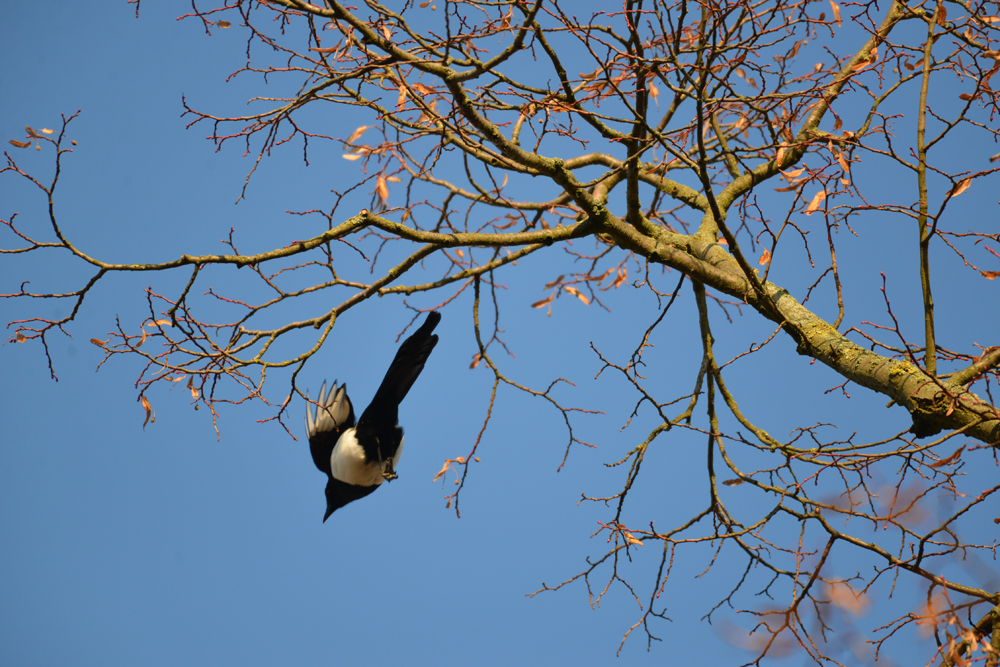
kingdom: Animalia
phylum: Chordata
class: Aves
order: Passeriformes
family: Corvidae
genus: Pica
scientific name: Pica pica
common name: Eurasian magpie
